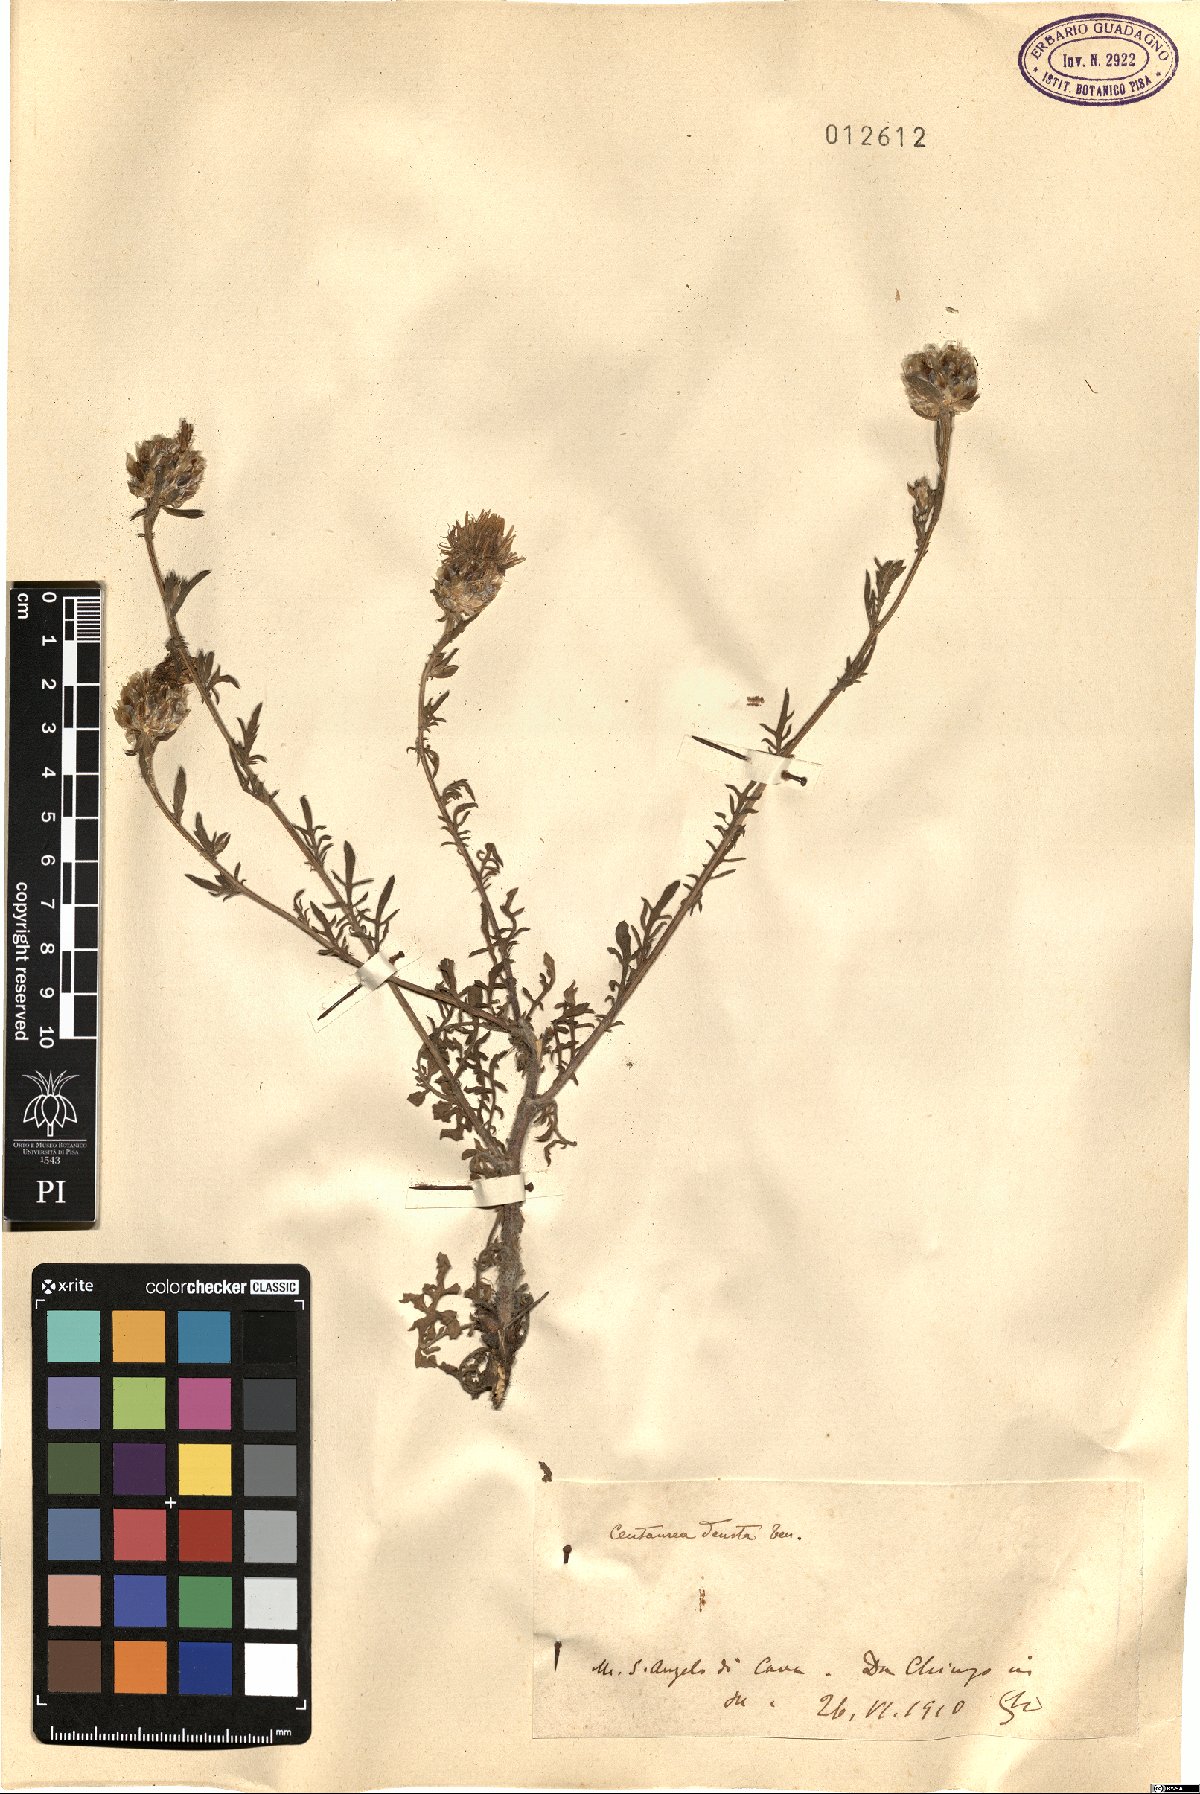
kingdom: Plantae
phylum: Tracheophyta
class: Magnoliopsida
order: Asterales
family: Asteraceae
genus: Centaurea
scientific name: Centaurea deusta
